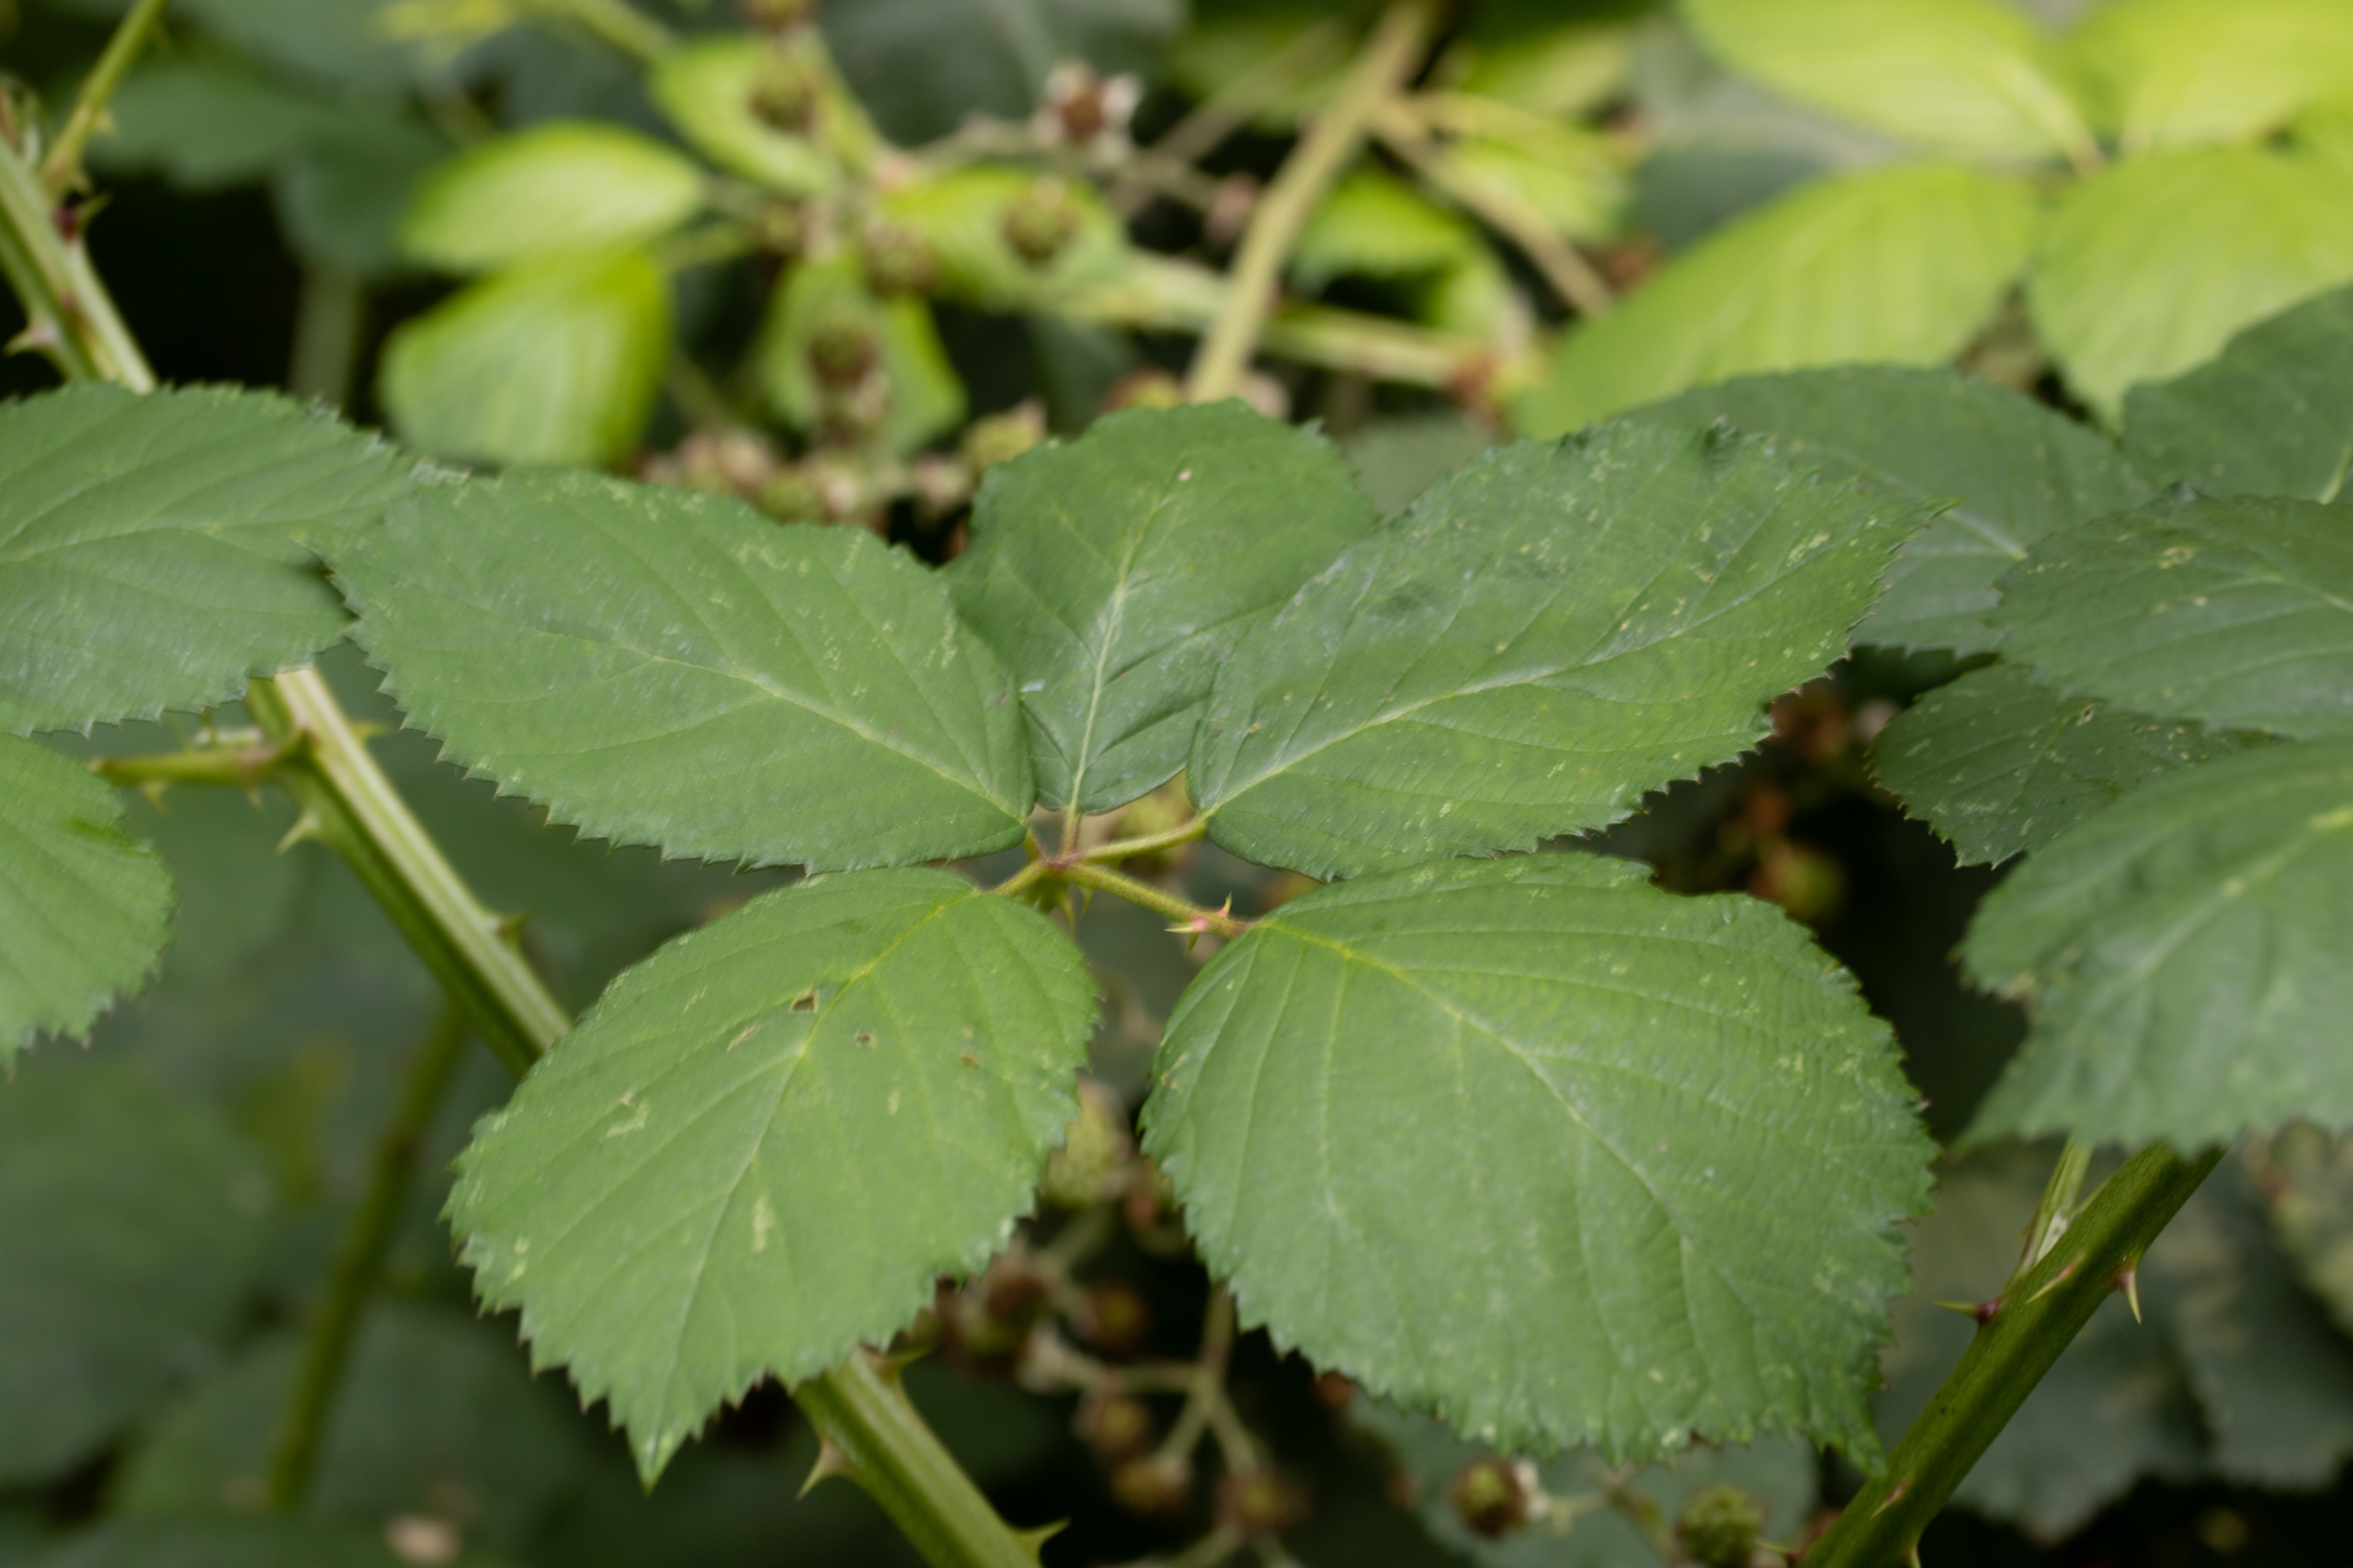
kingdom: Plantae
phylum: Tracheophyta
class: Magnoliopsida
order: Rosales
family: Rosaceae
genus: Rubus
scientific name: Rubus armeniacus
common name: Armensk brombær
